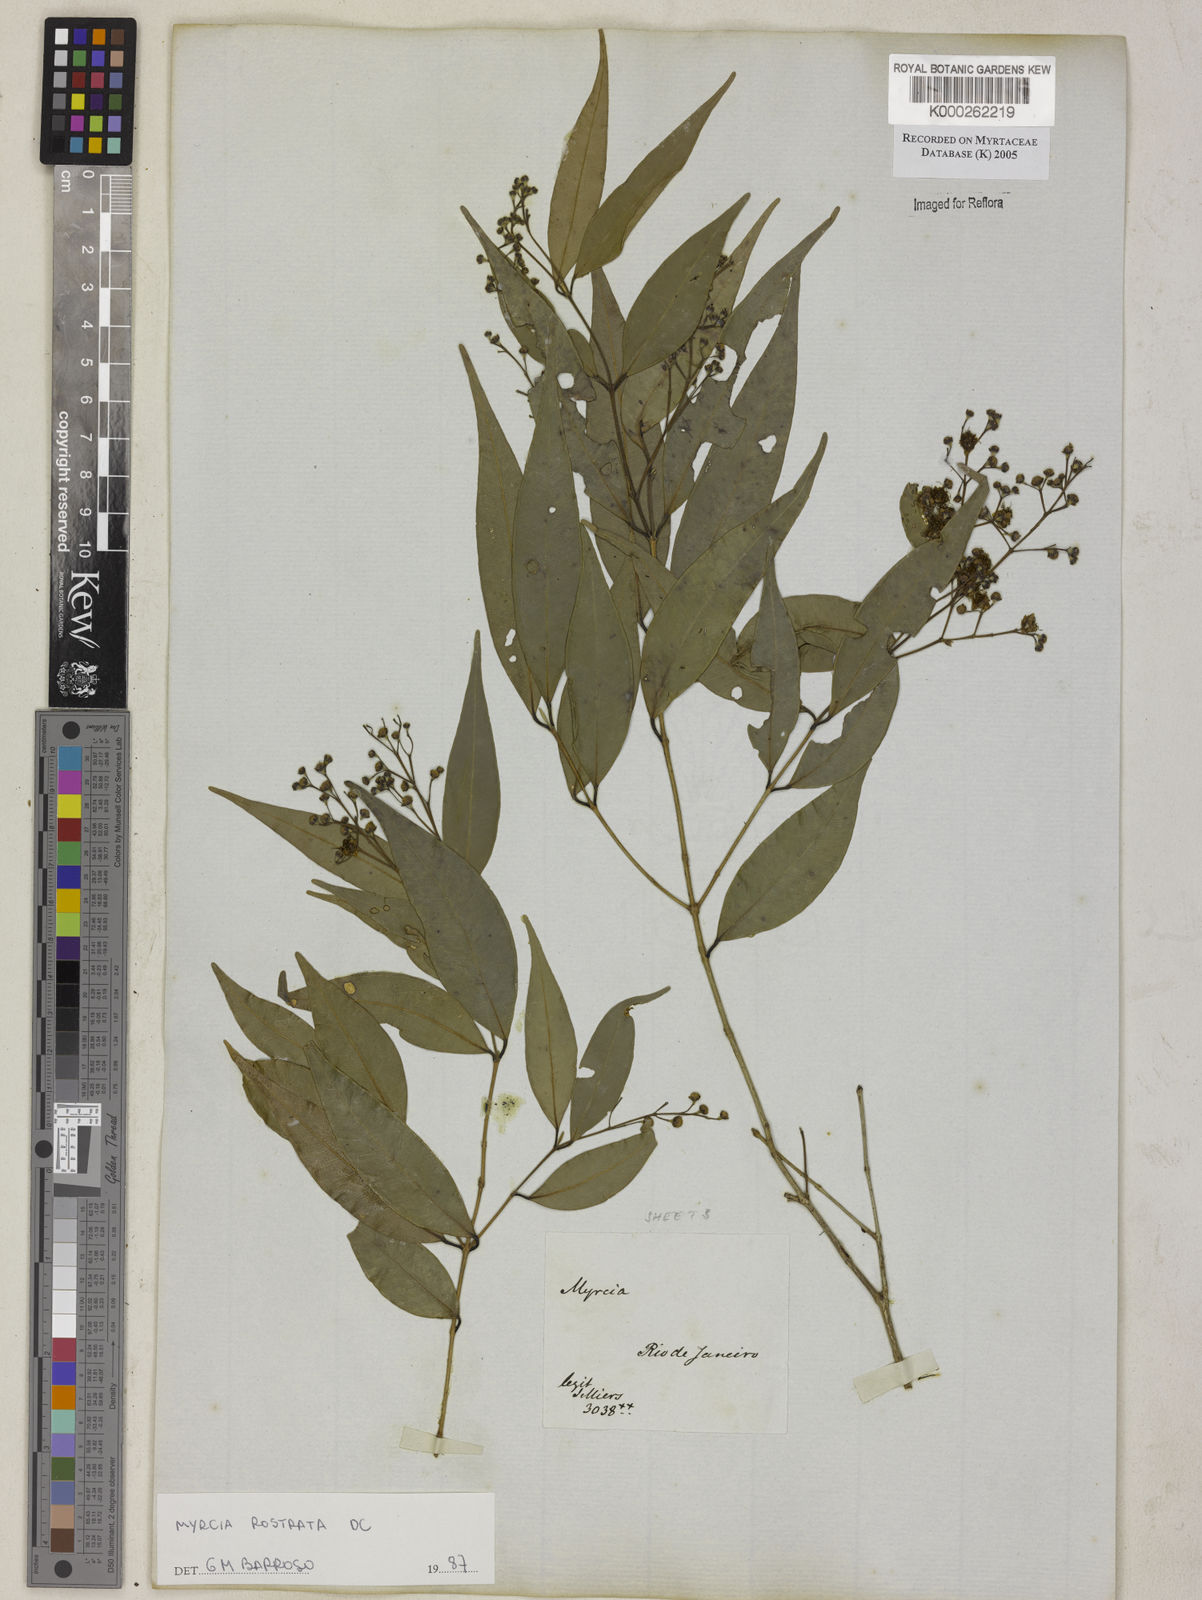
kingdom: Plantae
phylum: Tracheophyta
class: Magnoliopsida
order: Myrtales
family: Myrtaceae
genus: Myrcia
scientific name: Myrcia splendens
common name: Surinam cherry
